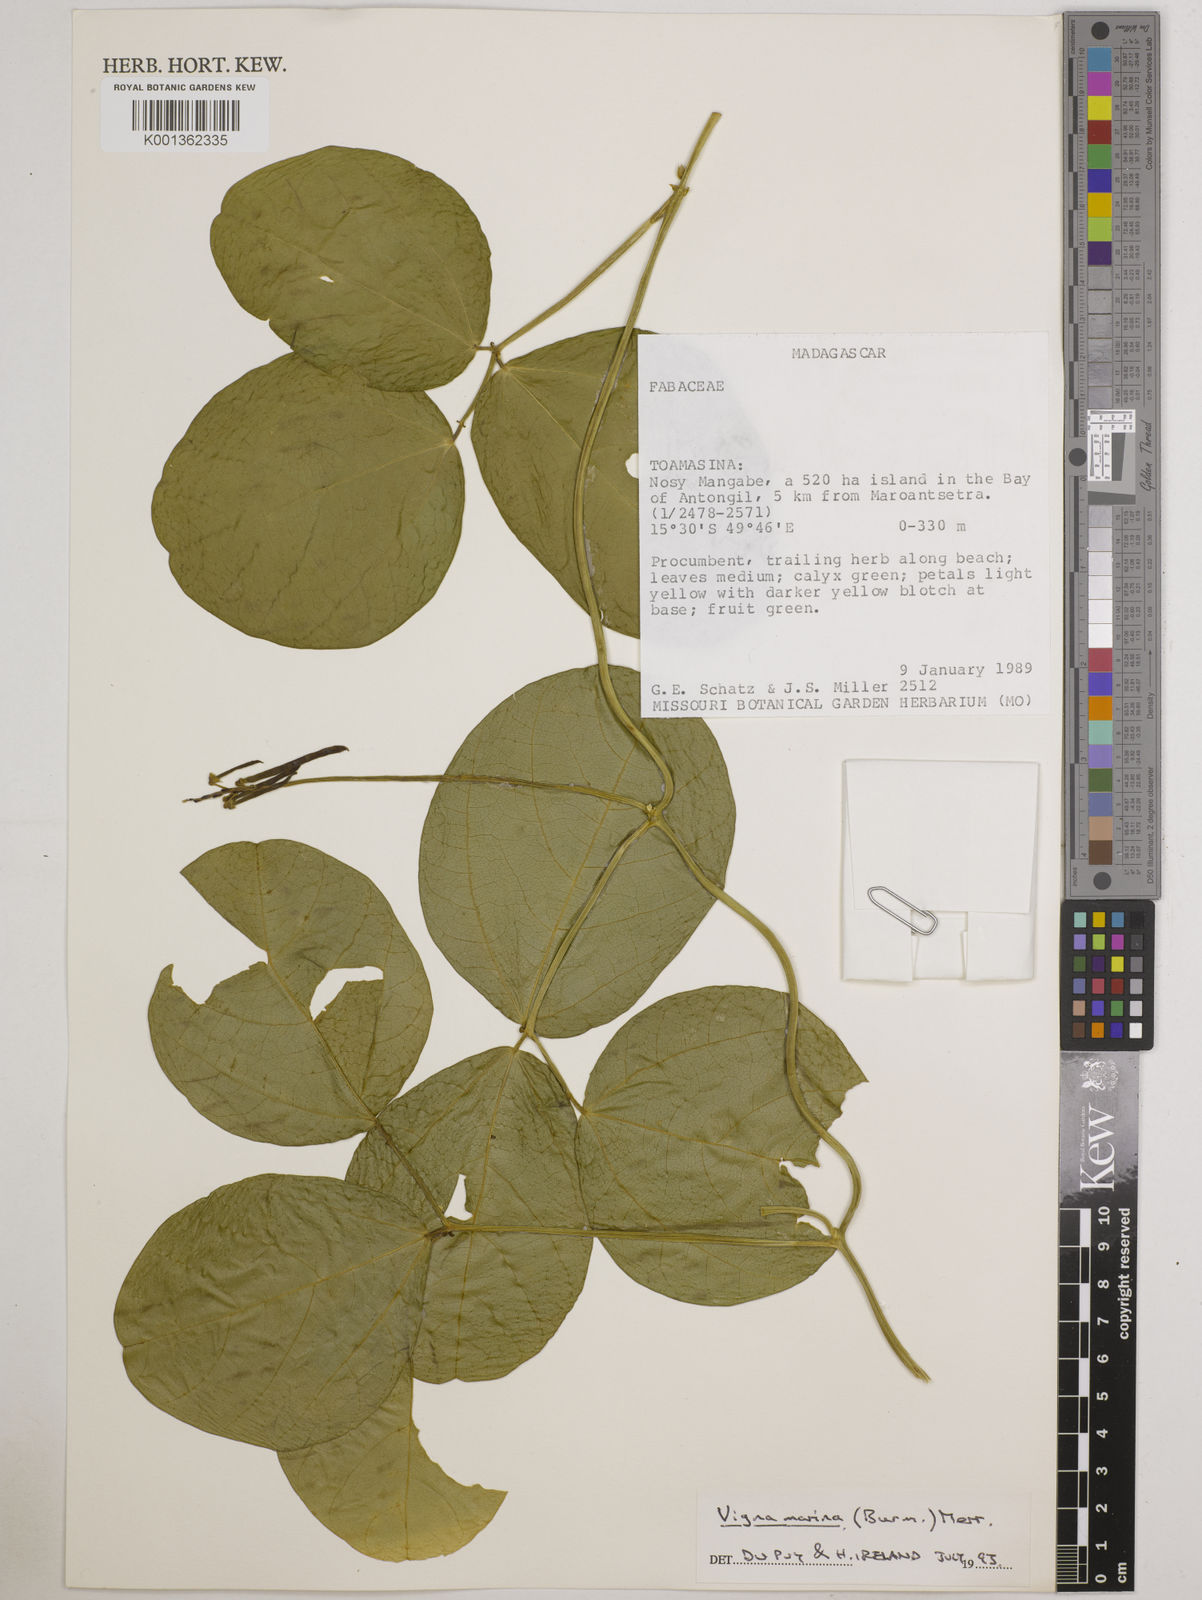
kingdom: Plantae
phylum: Tracheophyta
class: Magnoliopsida
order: Fabales
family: Fabaceae
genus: Vigna
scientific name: Vigna marina
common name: Dune-bean
